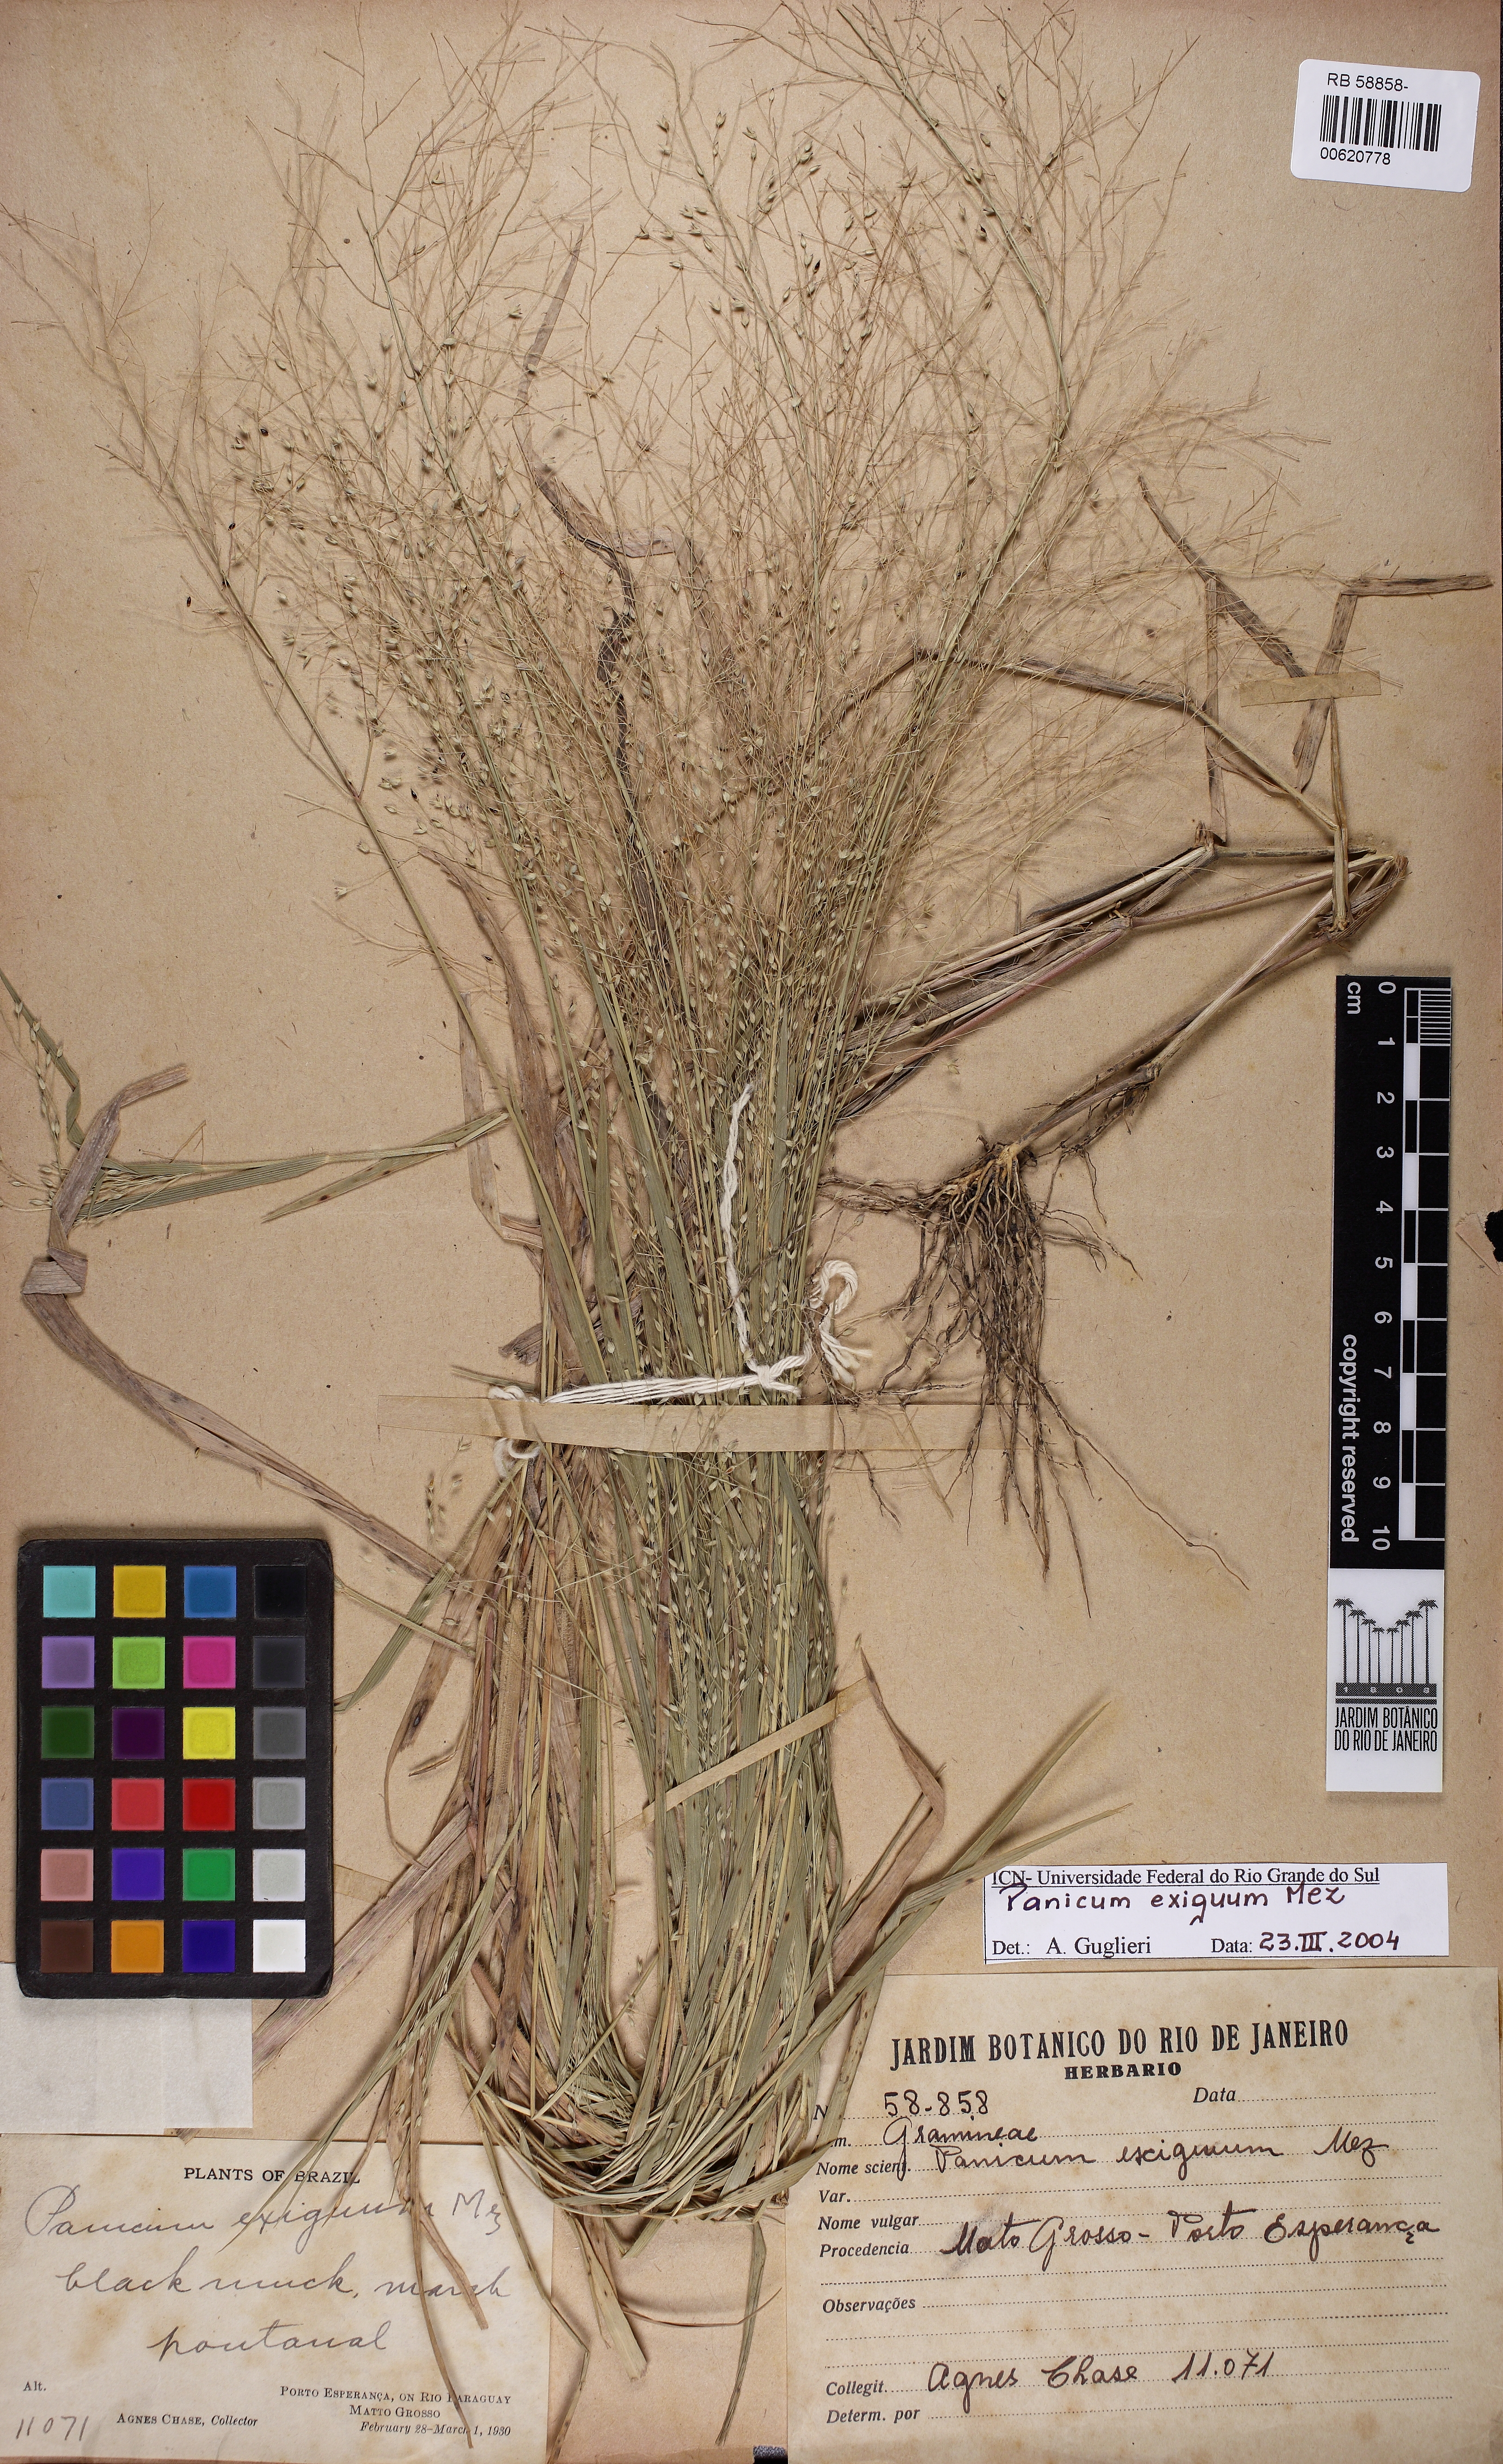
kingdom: Plantae
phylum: Tracheophyta
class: Liliopsida
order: Poales
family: Poaceae
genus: Panicum
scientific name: Panicum exiguum
